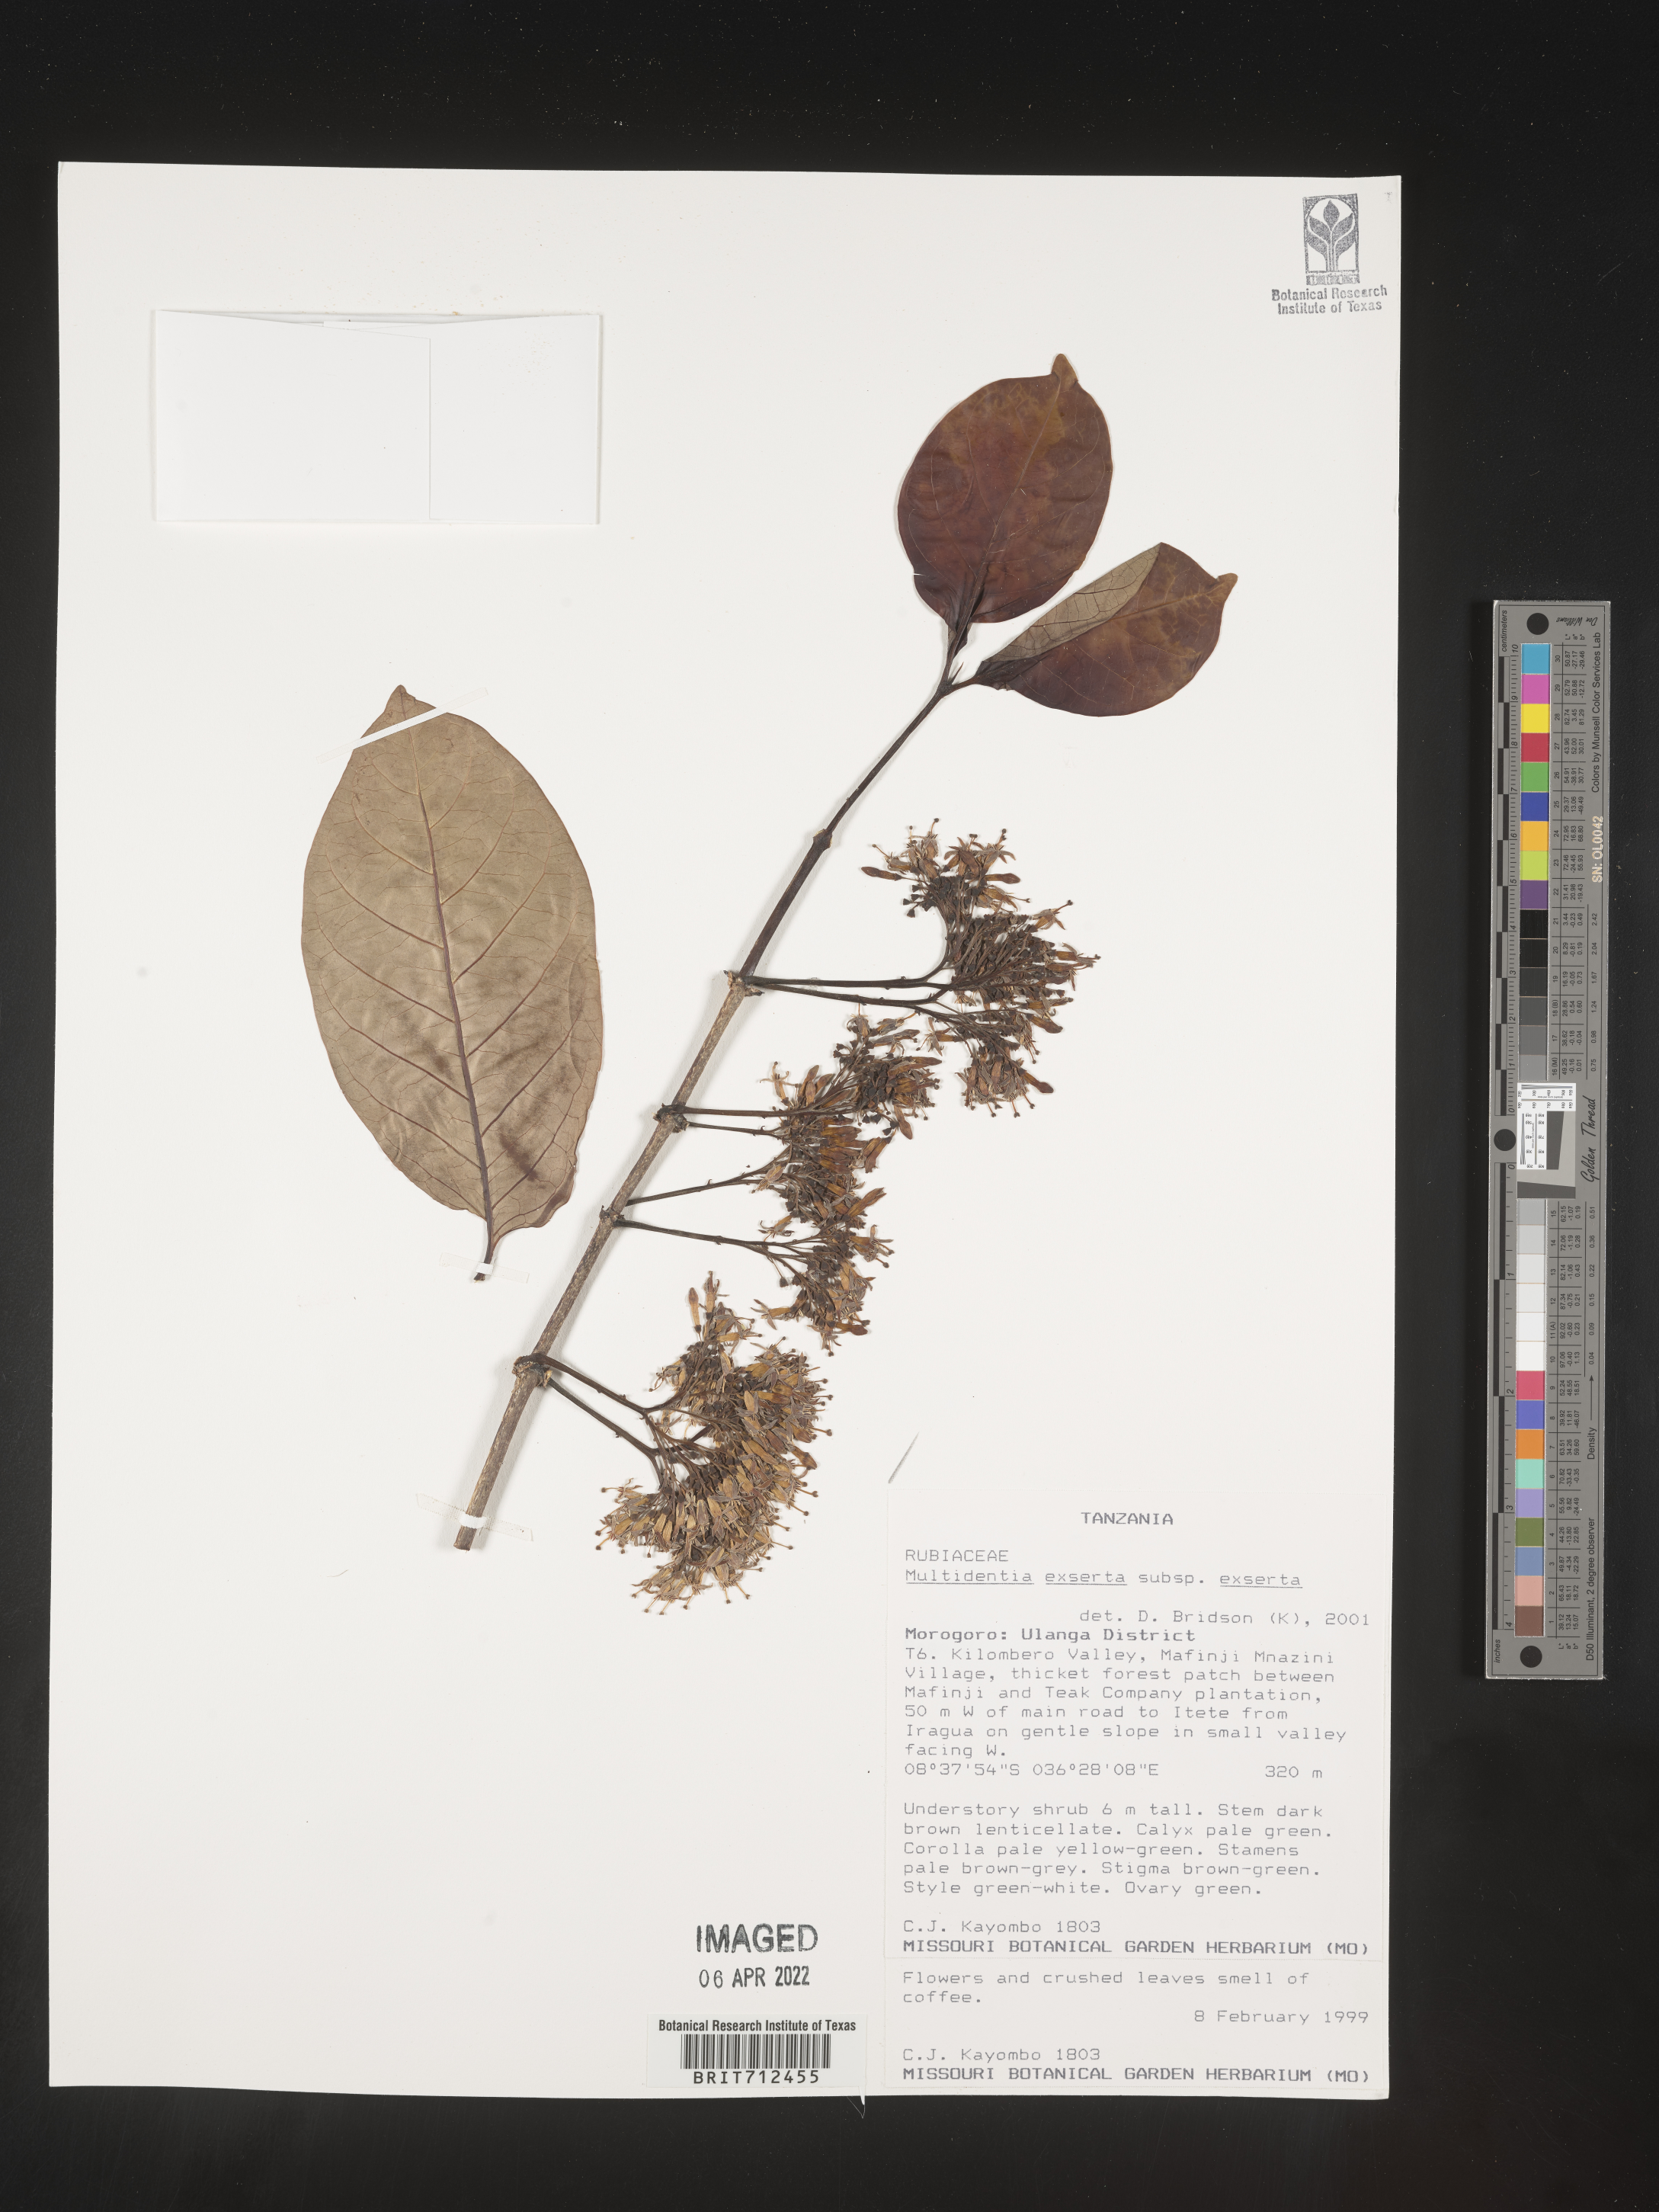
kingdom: Plantae
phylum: Tracheophyta
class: Magnoliopsida
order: Gentianales
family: Rubiaceae
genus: Multidentia
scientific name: Multidentia
